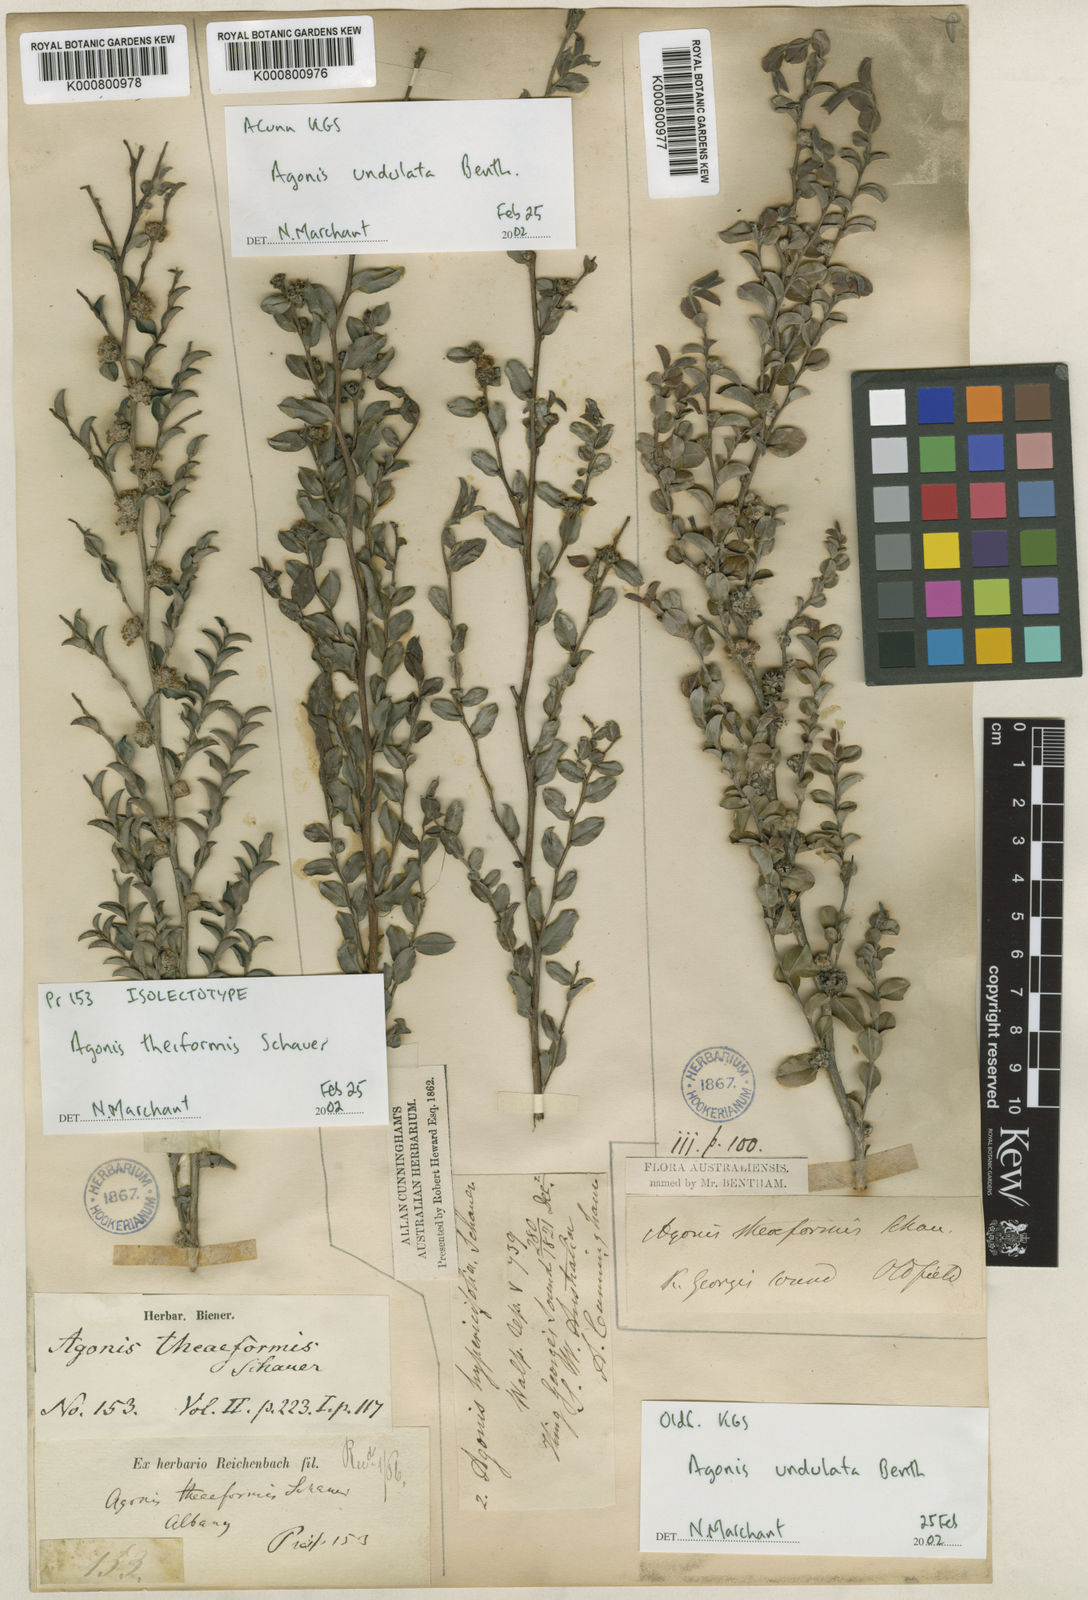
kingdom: Plantae
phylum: Tracheophyta
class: Magnoliopsida
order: Myrtales
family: Myrtaceae
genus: Agonis
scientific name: Agonis
